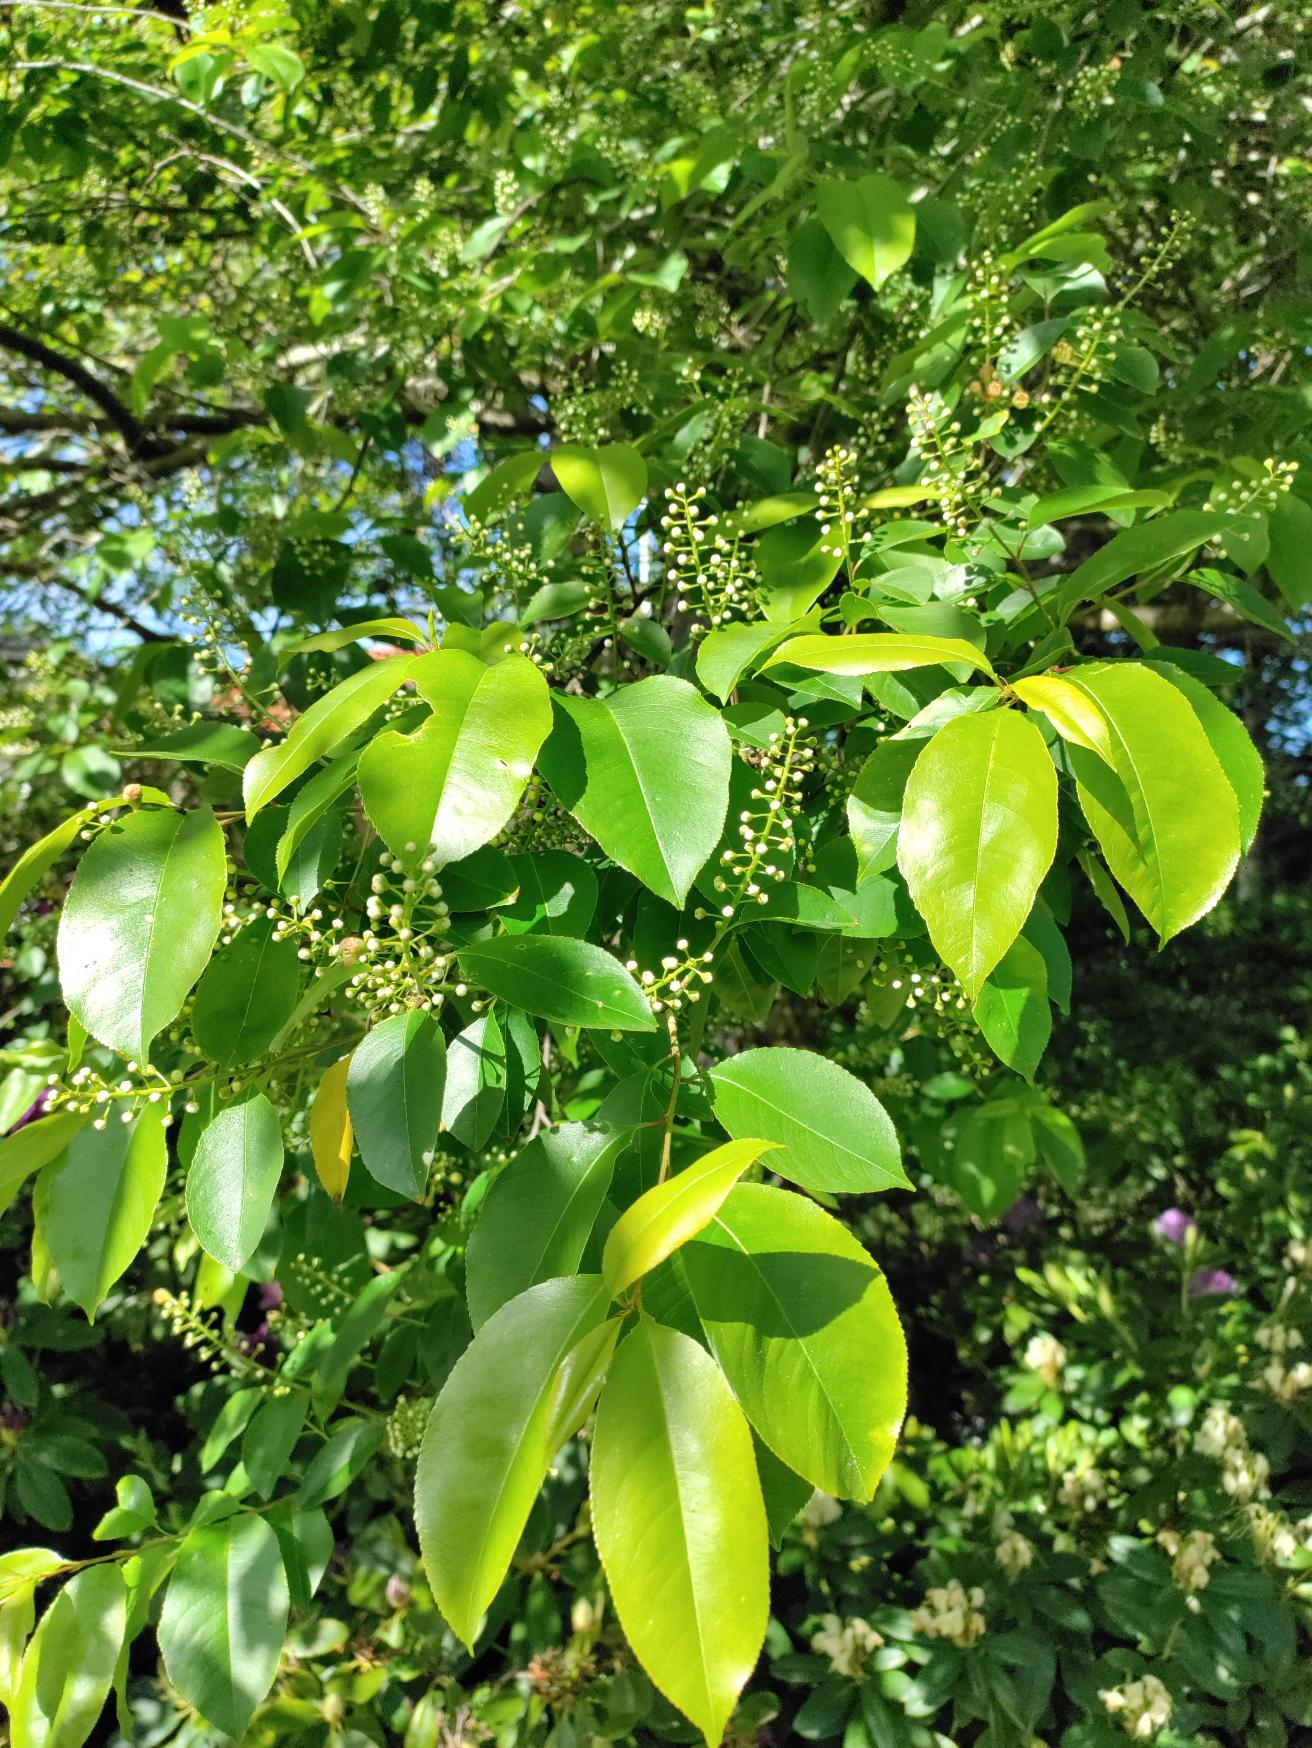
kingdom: Plantae
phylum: Tracheophyta
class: Magnoliopsida
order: Rosales
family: Rosaceae
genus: Prunus
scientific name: Prunus serotina
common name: Glansbladet hæg
